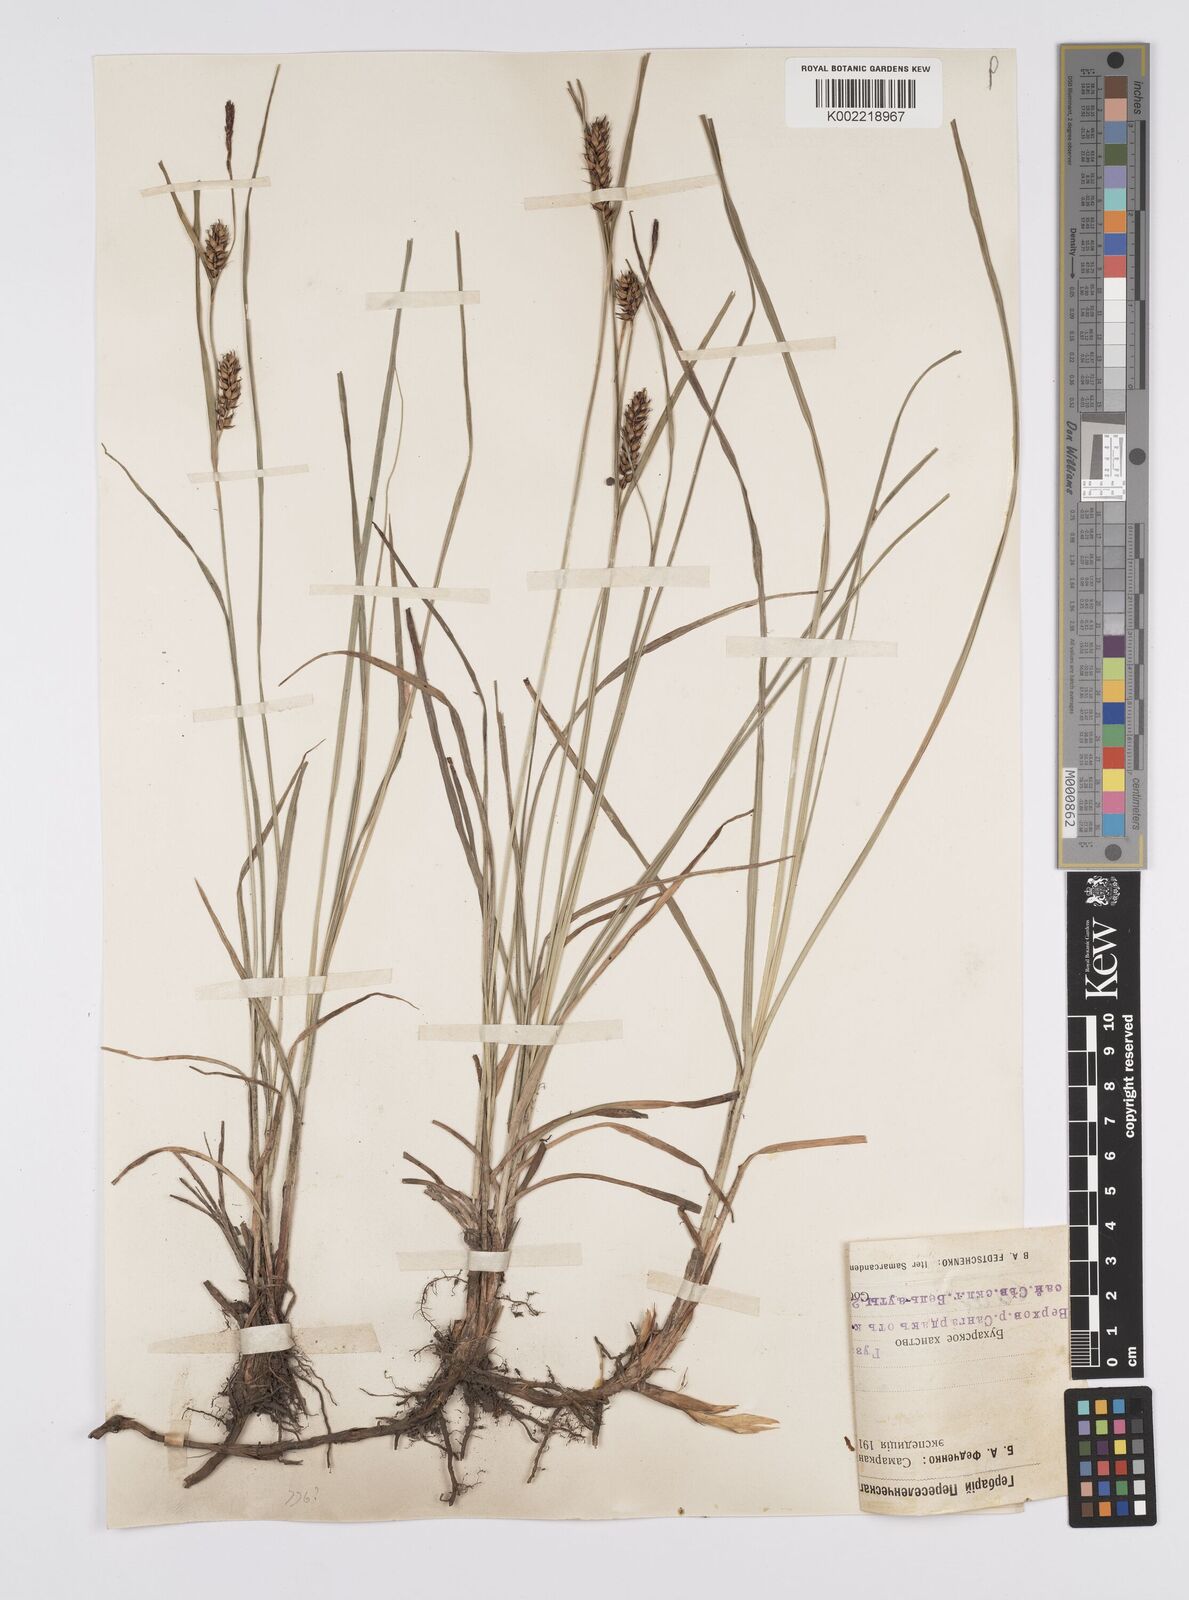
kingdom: Plantae
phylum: Tracheophyta
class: Liliopsida
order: Poales
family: Cyperaceae
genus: Carex
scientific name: Carex melanostachya
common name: Black-spiked sedge
